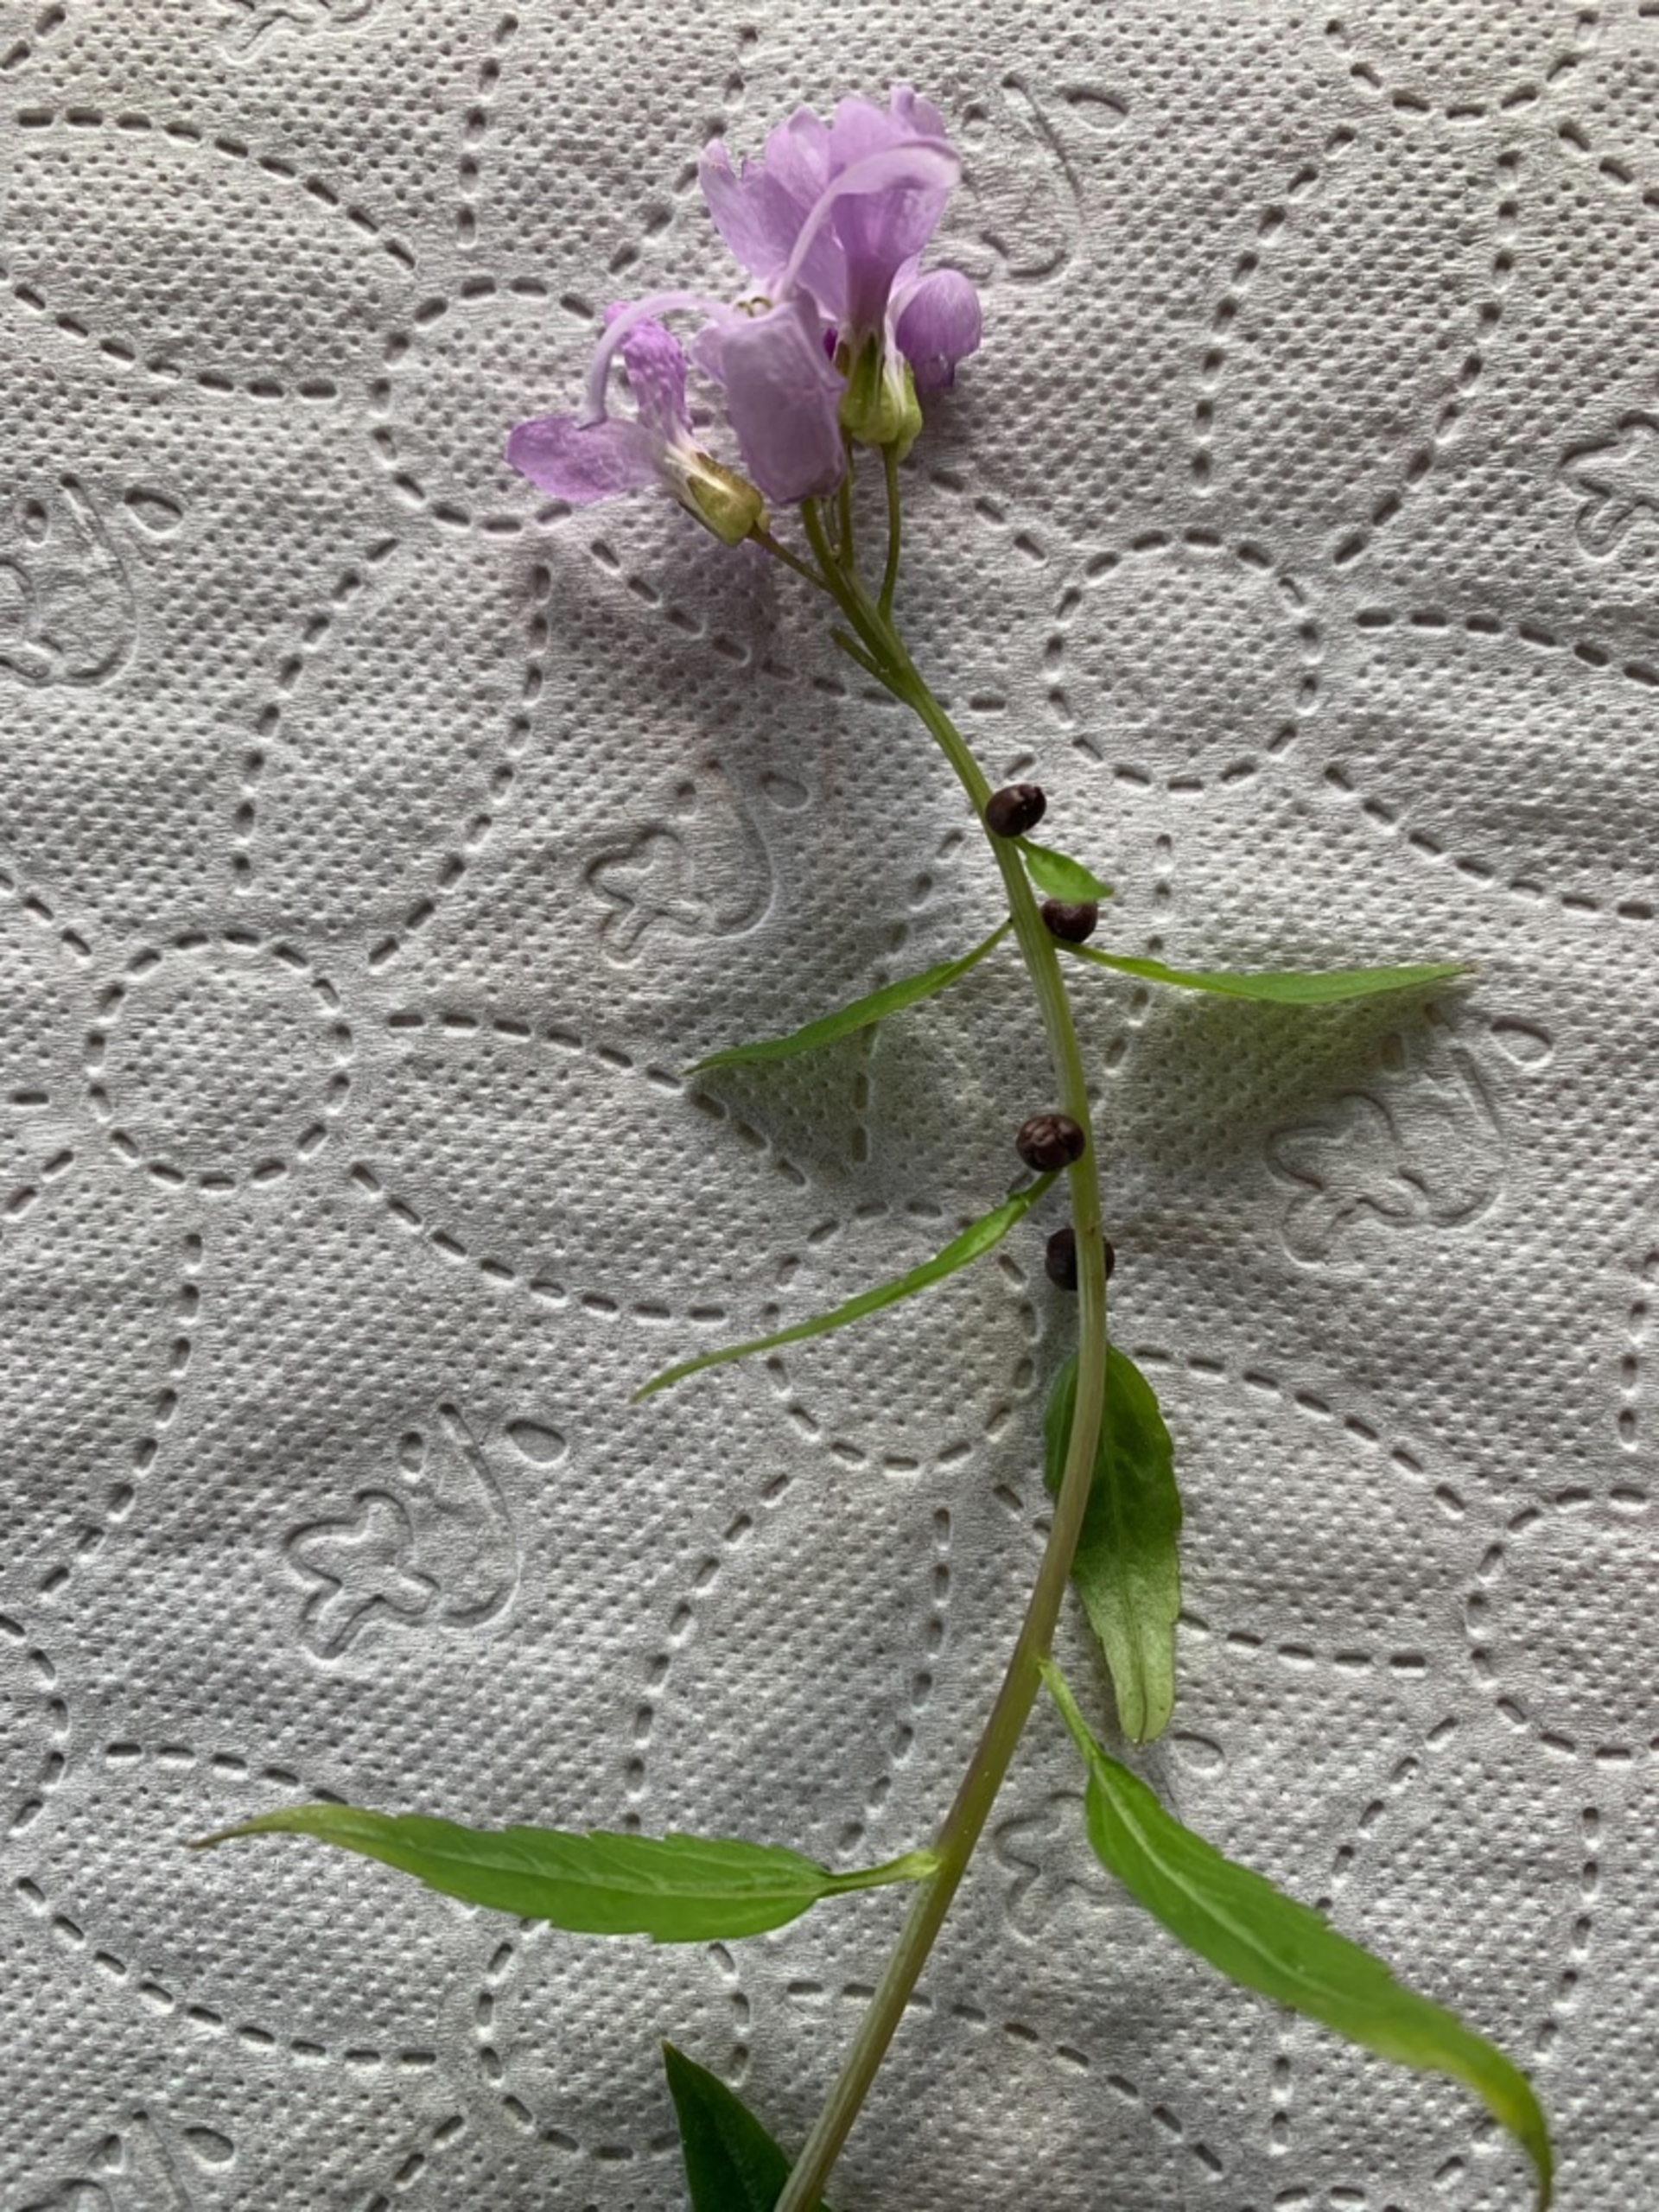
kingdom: Plantae
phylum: Tracheophyta
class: Magnoliopsida
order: Brassicales
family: Brassicaceae
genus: Cardamine
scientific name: Cardamine bulbifera
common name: Tandrod
